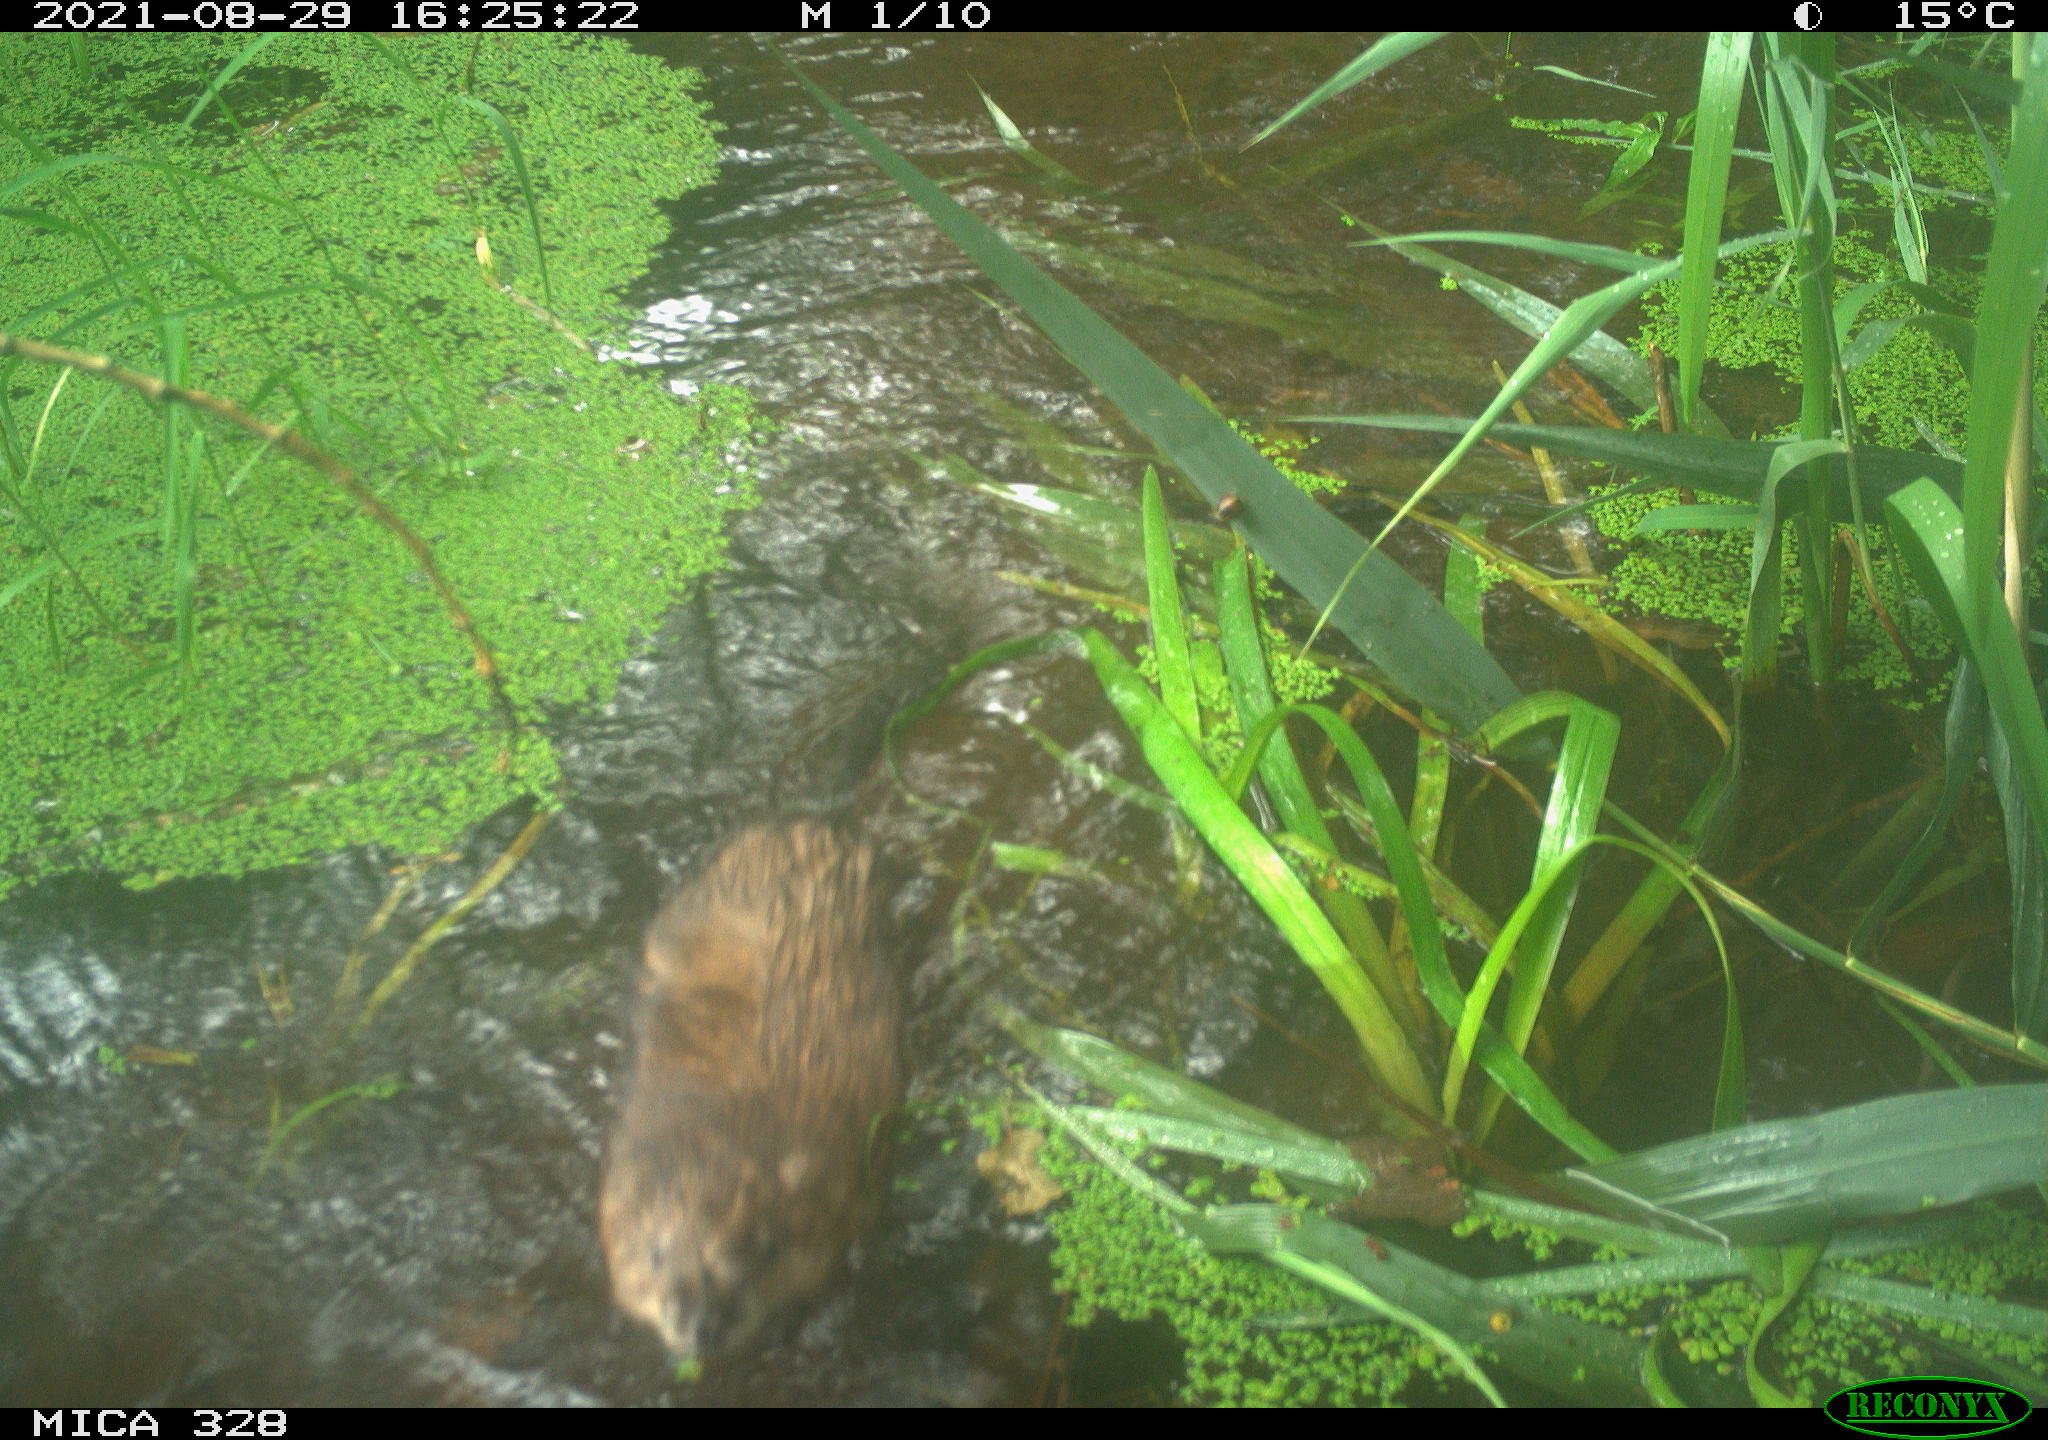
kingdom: Animalia
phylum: Chordata
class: Mammalia
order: Rodentia
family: Cricetidae
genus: Ondatra
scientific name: Ondatra zibethicus
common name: Muskrat
